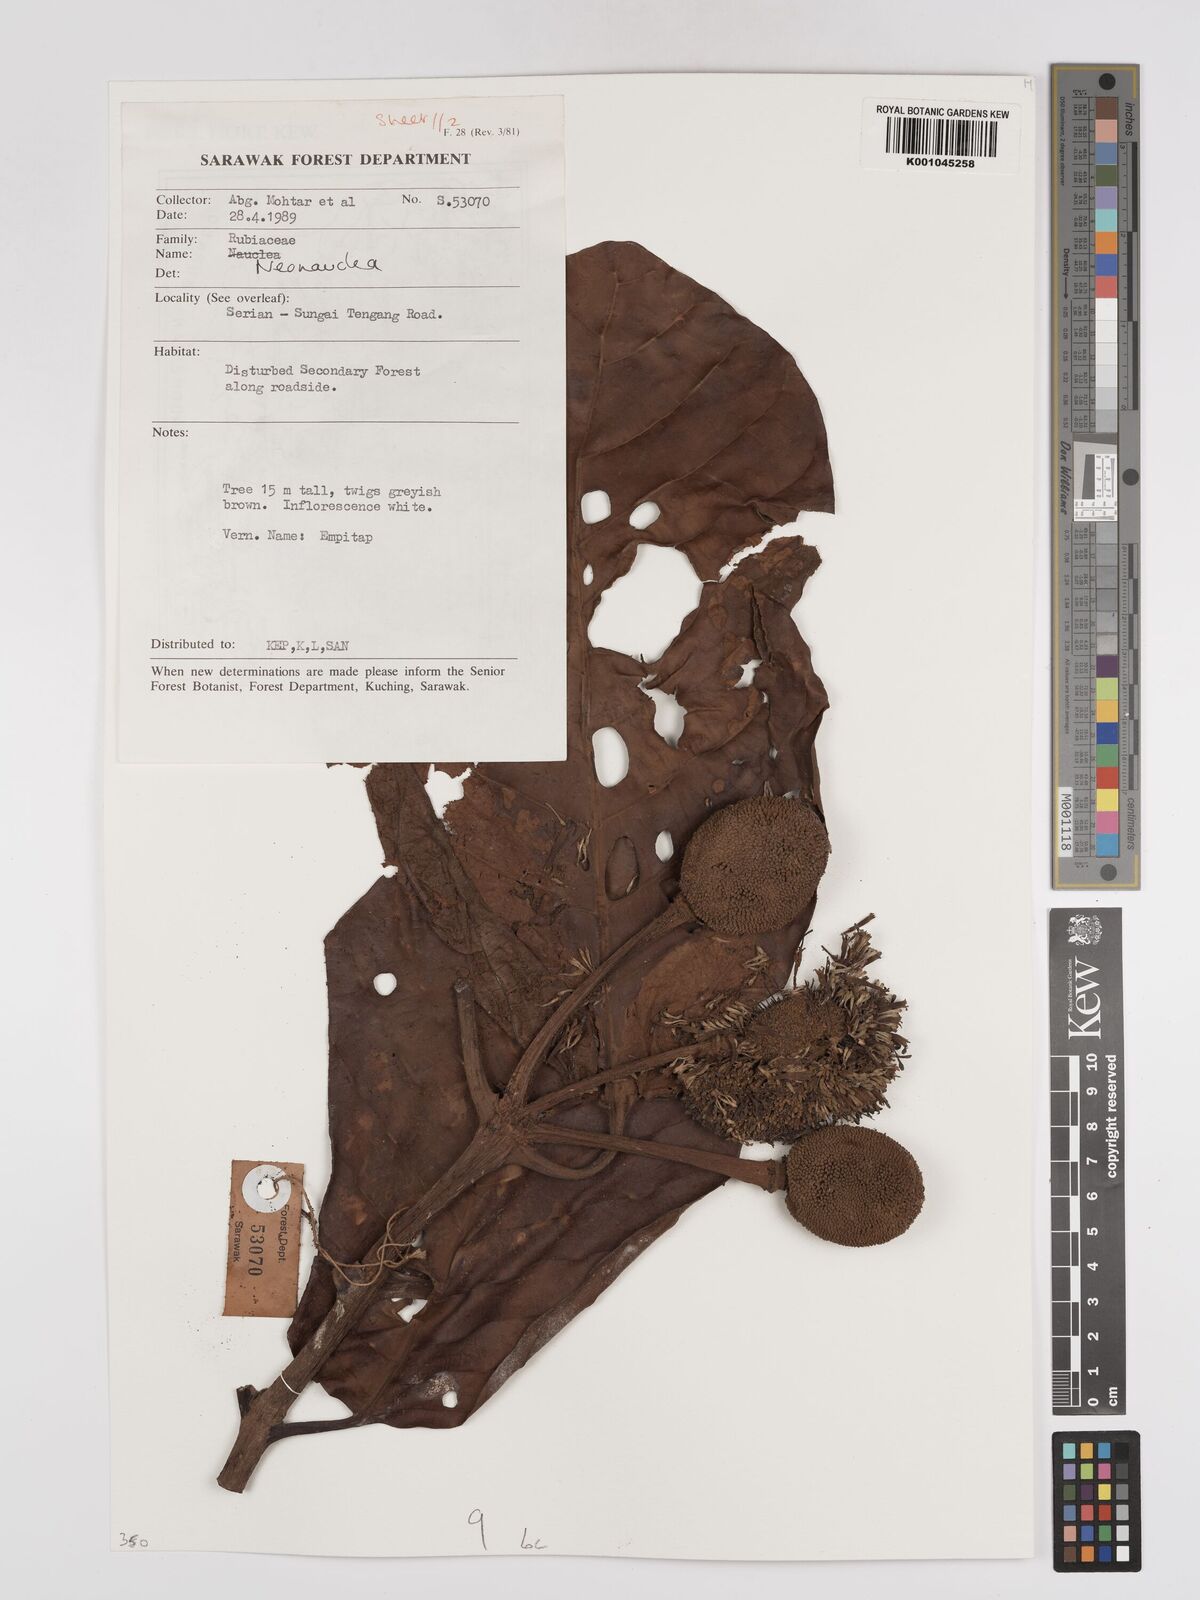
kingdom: Plantae
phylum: Tracheophyta
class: Magnoliopsida
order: Gentianales
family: Rubiaceae
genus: Neonauclea
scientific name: Neonauclea
